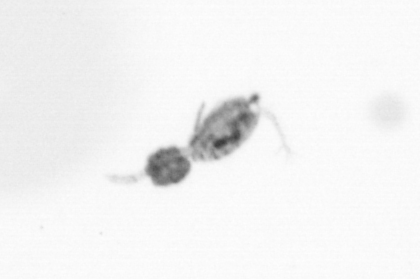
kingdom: Animalia
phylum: Arthropoda
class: Copepoda
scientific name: Copepoda
